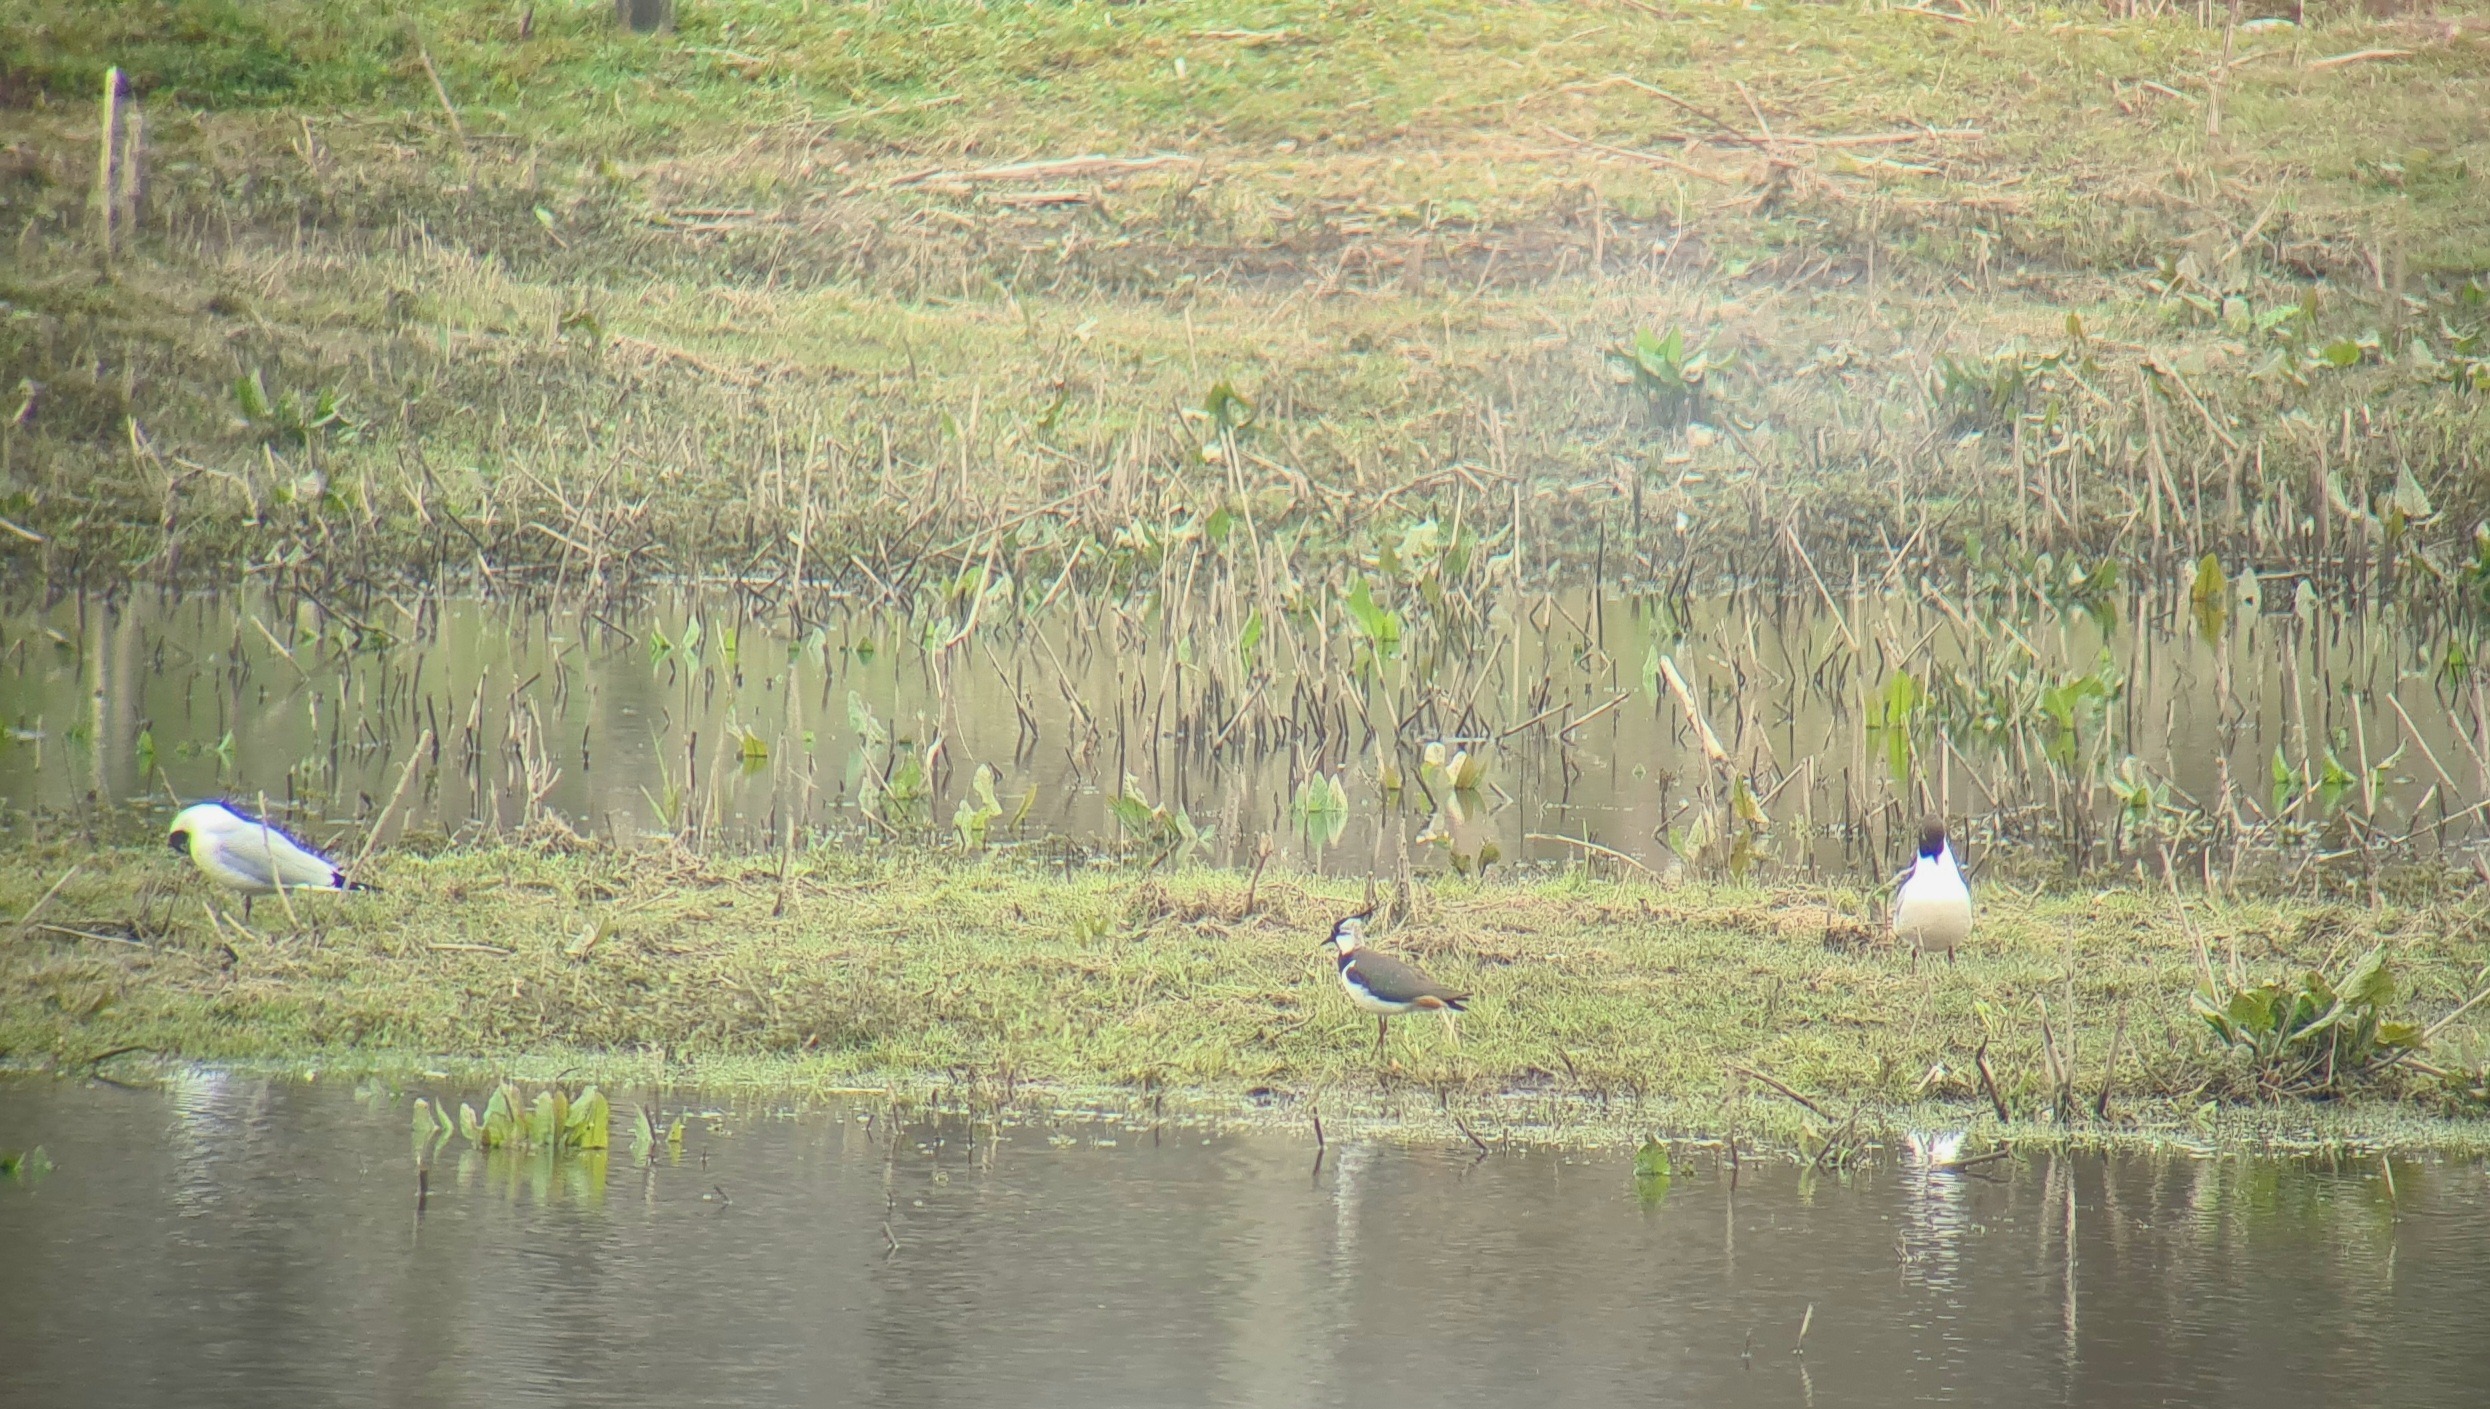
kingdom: Animalia
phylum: Chordata
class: Aves
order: Charadriiformes
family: Charadriidae
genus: Vanellus
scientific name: Vanellus vanellus
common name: Vibe
